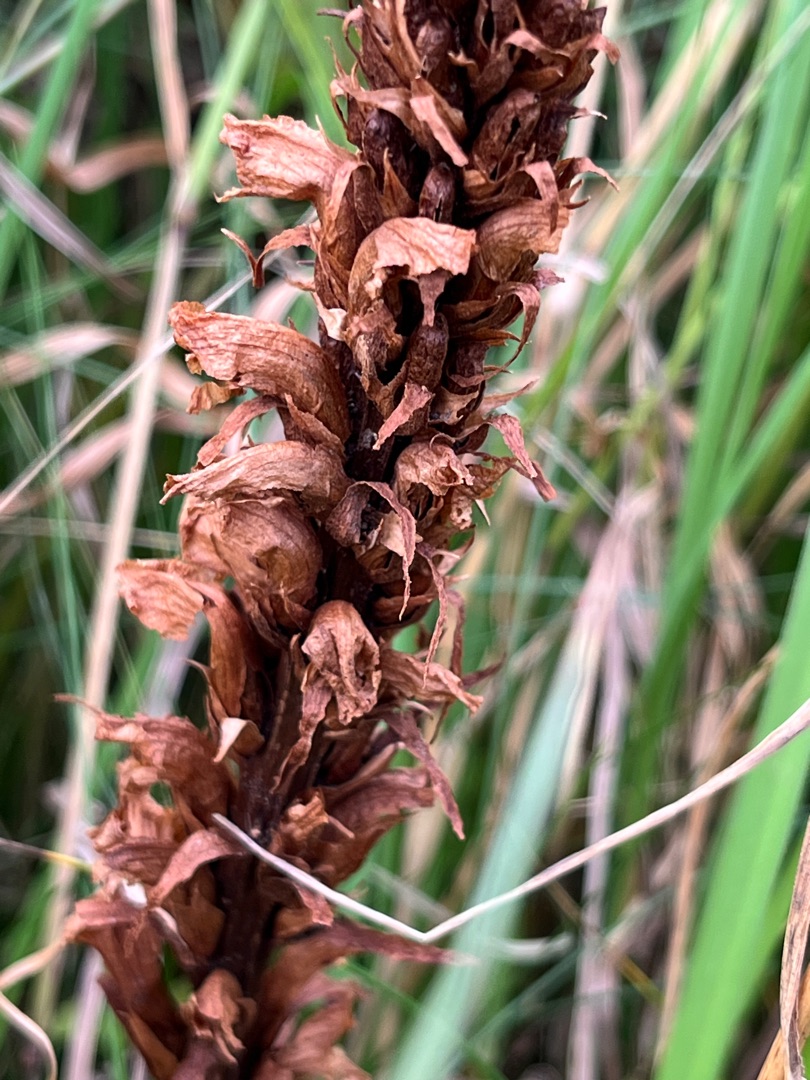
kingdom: Plantae
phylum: Tracheophyta
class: Magnoliopsida
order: Lamiales
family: Orobanchaceae
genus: Orobanche
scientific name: Orobanche elatior
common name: Stor gyvelkvæler
